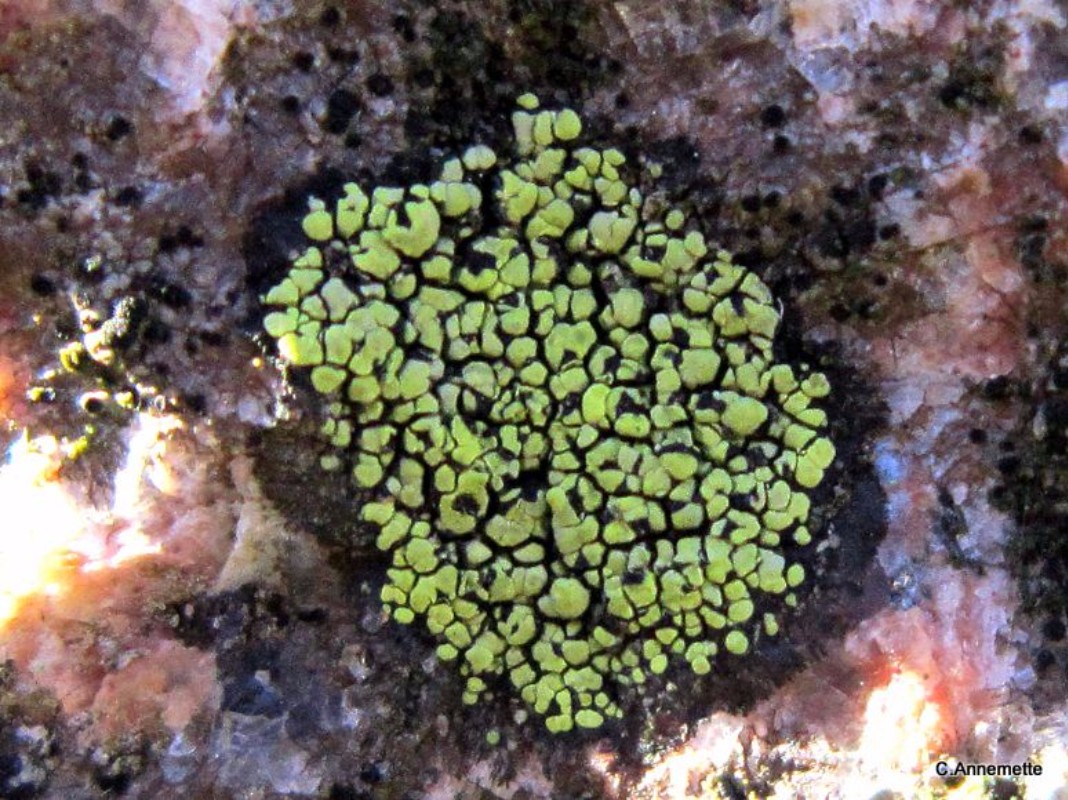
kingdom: Fungi
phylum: Ascomycota
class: Lecanoromycetes
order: Rhizocarpales
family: Rhizocarpaceae
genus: Rhizocarpon
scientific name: Rhizocarpon lecanorinum
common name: krave-landkortlav
